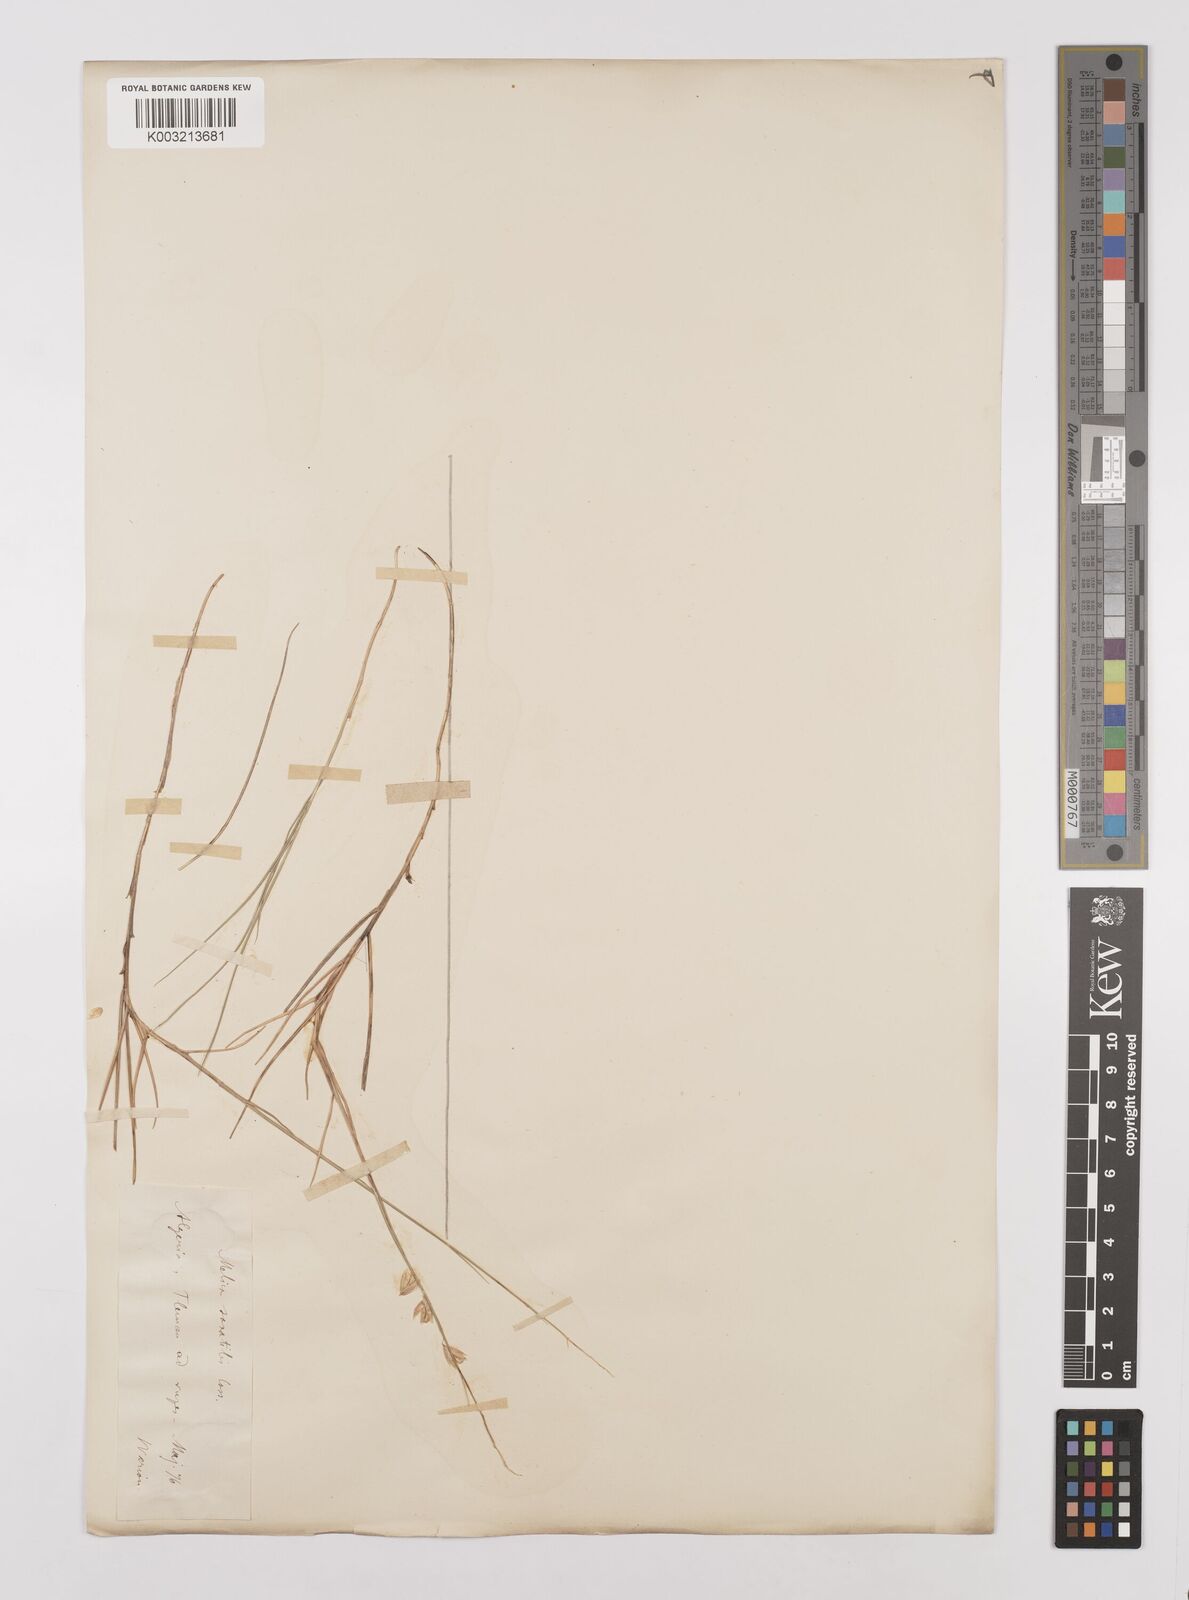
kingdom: Plantae
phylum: Tracheophyta
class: Liliopsida
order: Poales
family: Poaceae
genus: Melica
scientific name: Melica minuta
